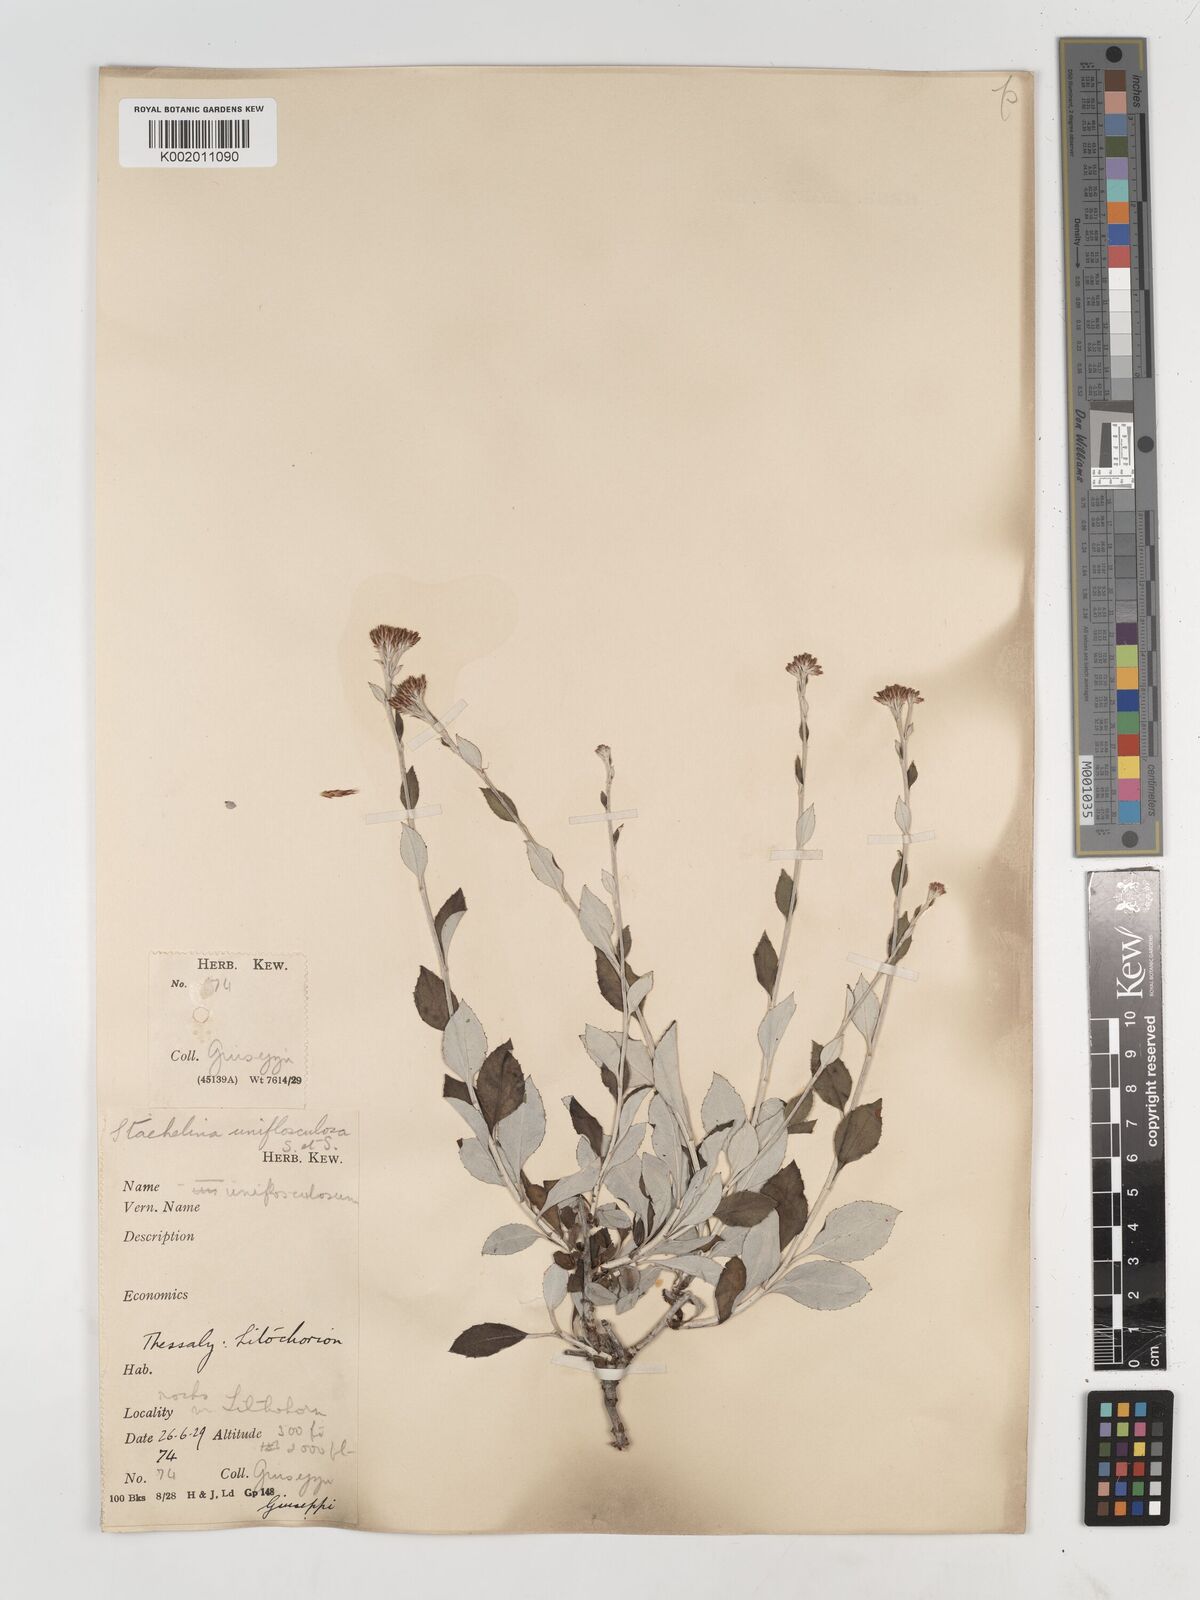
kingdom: Plantae
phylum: Tracheophyta
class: Magnoliopsida
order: Asterales
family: Asteraceae
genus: Staehelina
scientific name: Staehelina uniflosculosa
